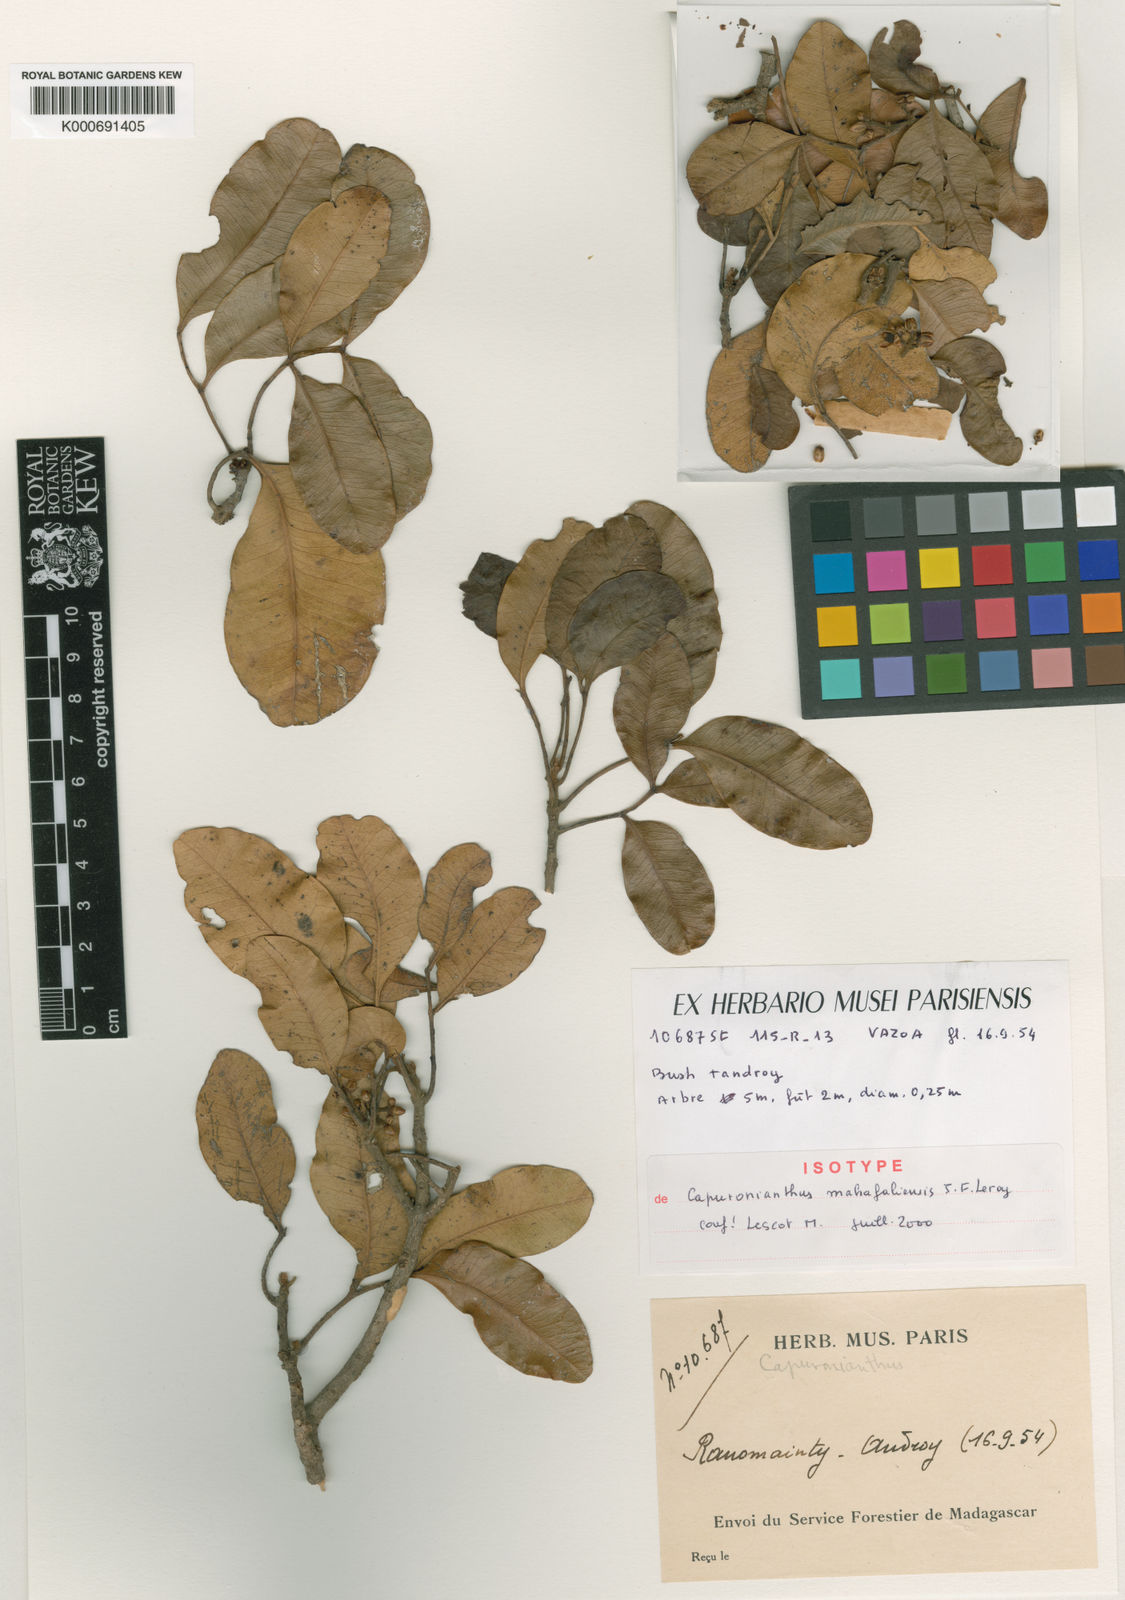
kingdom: Plantae
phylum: Tracheophyta
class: Magnoliopsida
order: Sapindales
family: Meliaceae
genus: Capuronianthus
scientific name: Capuronianthus mahafalensis
